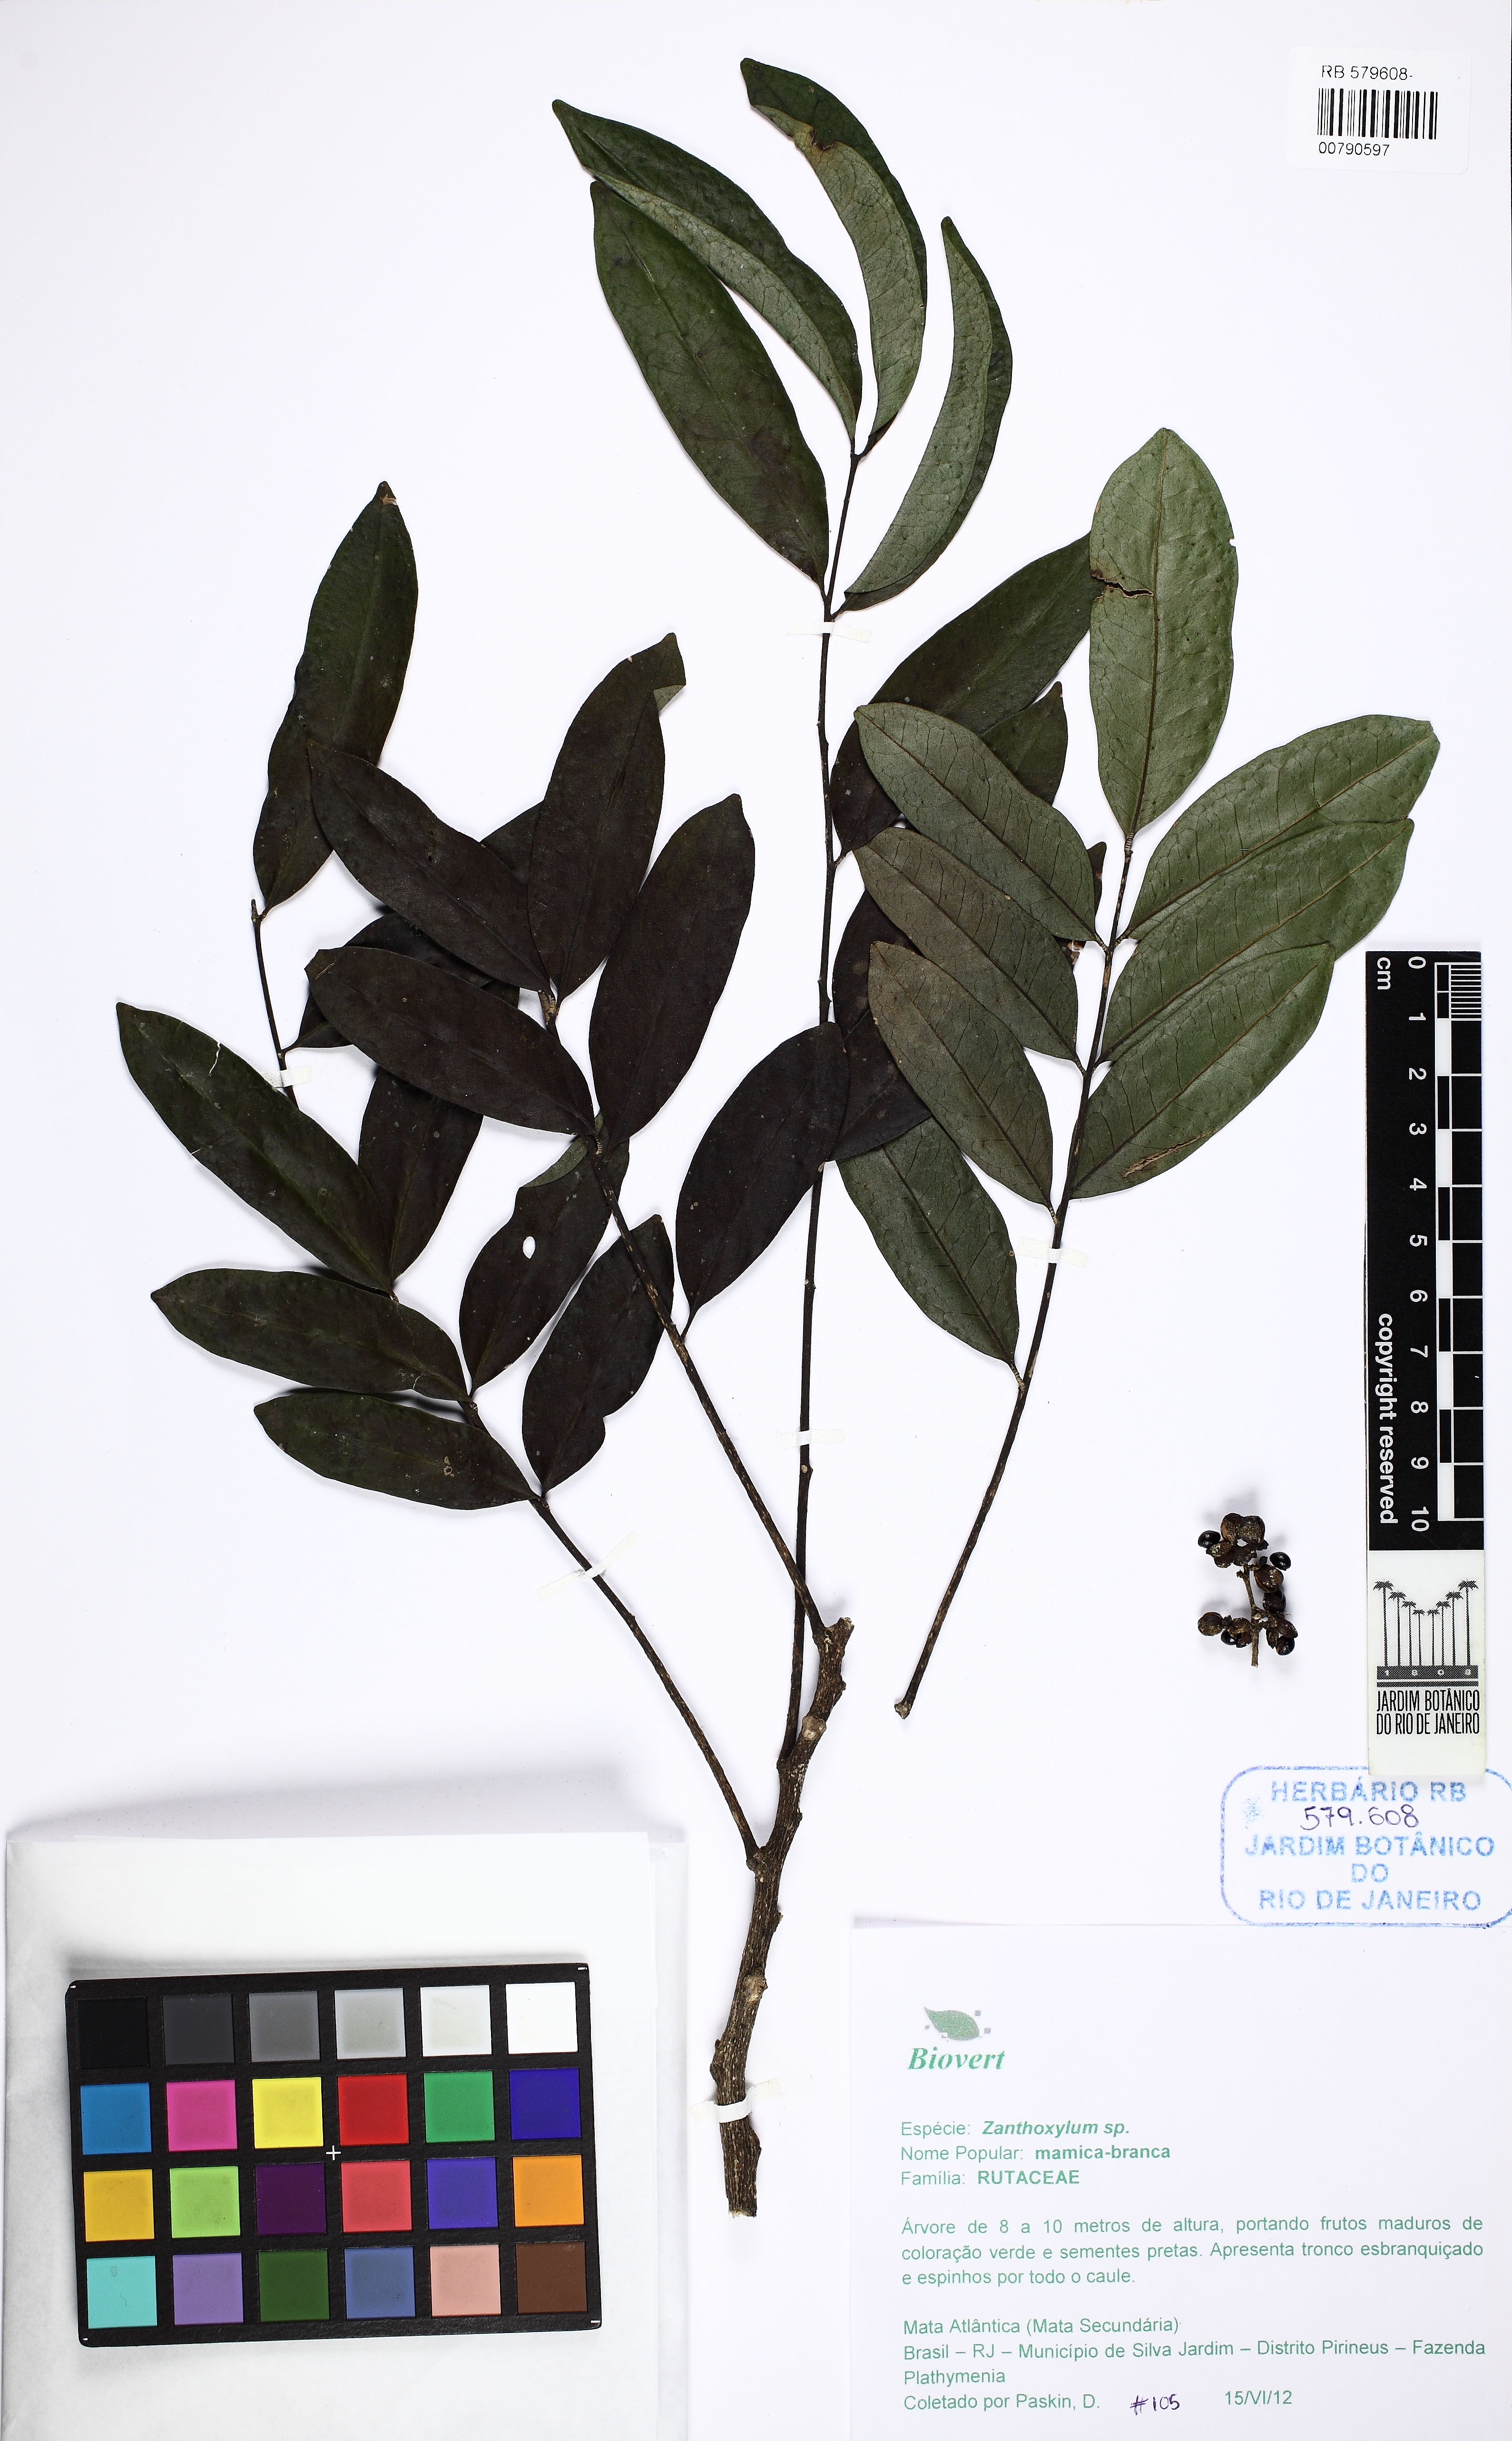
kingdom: Plantae
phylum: Tracheophyta
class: Magnoliopsida
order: Sapindales
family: Rutaceae
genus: Zanthoxylum
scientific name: Zanthoxylum monogynum
